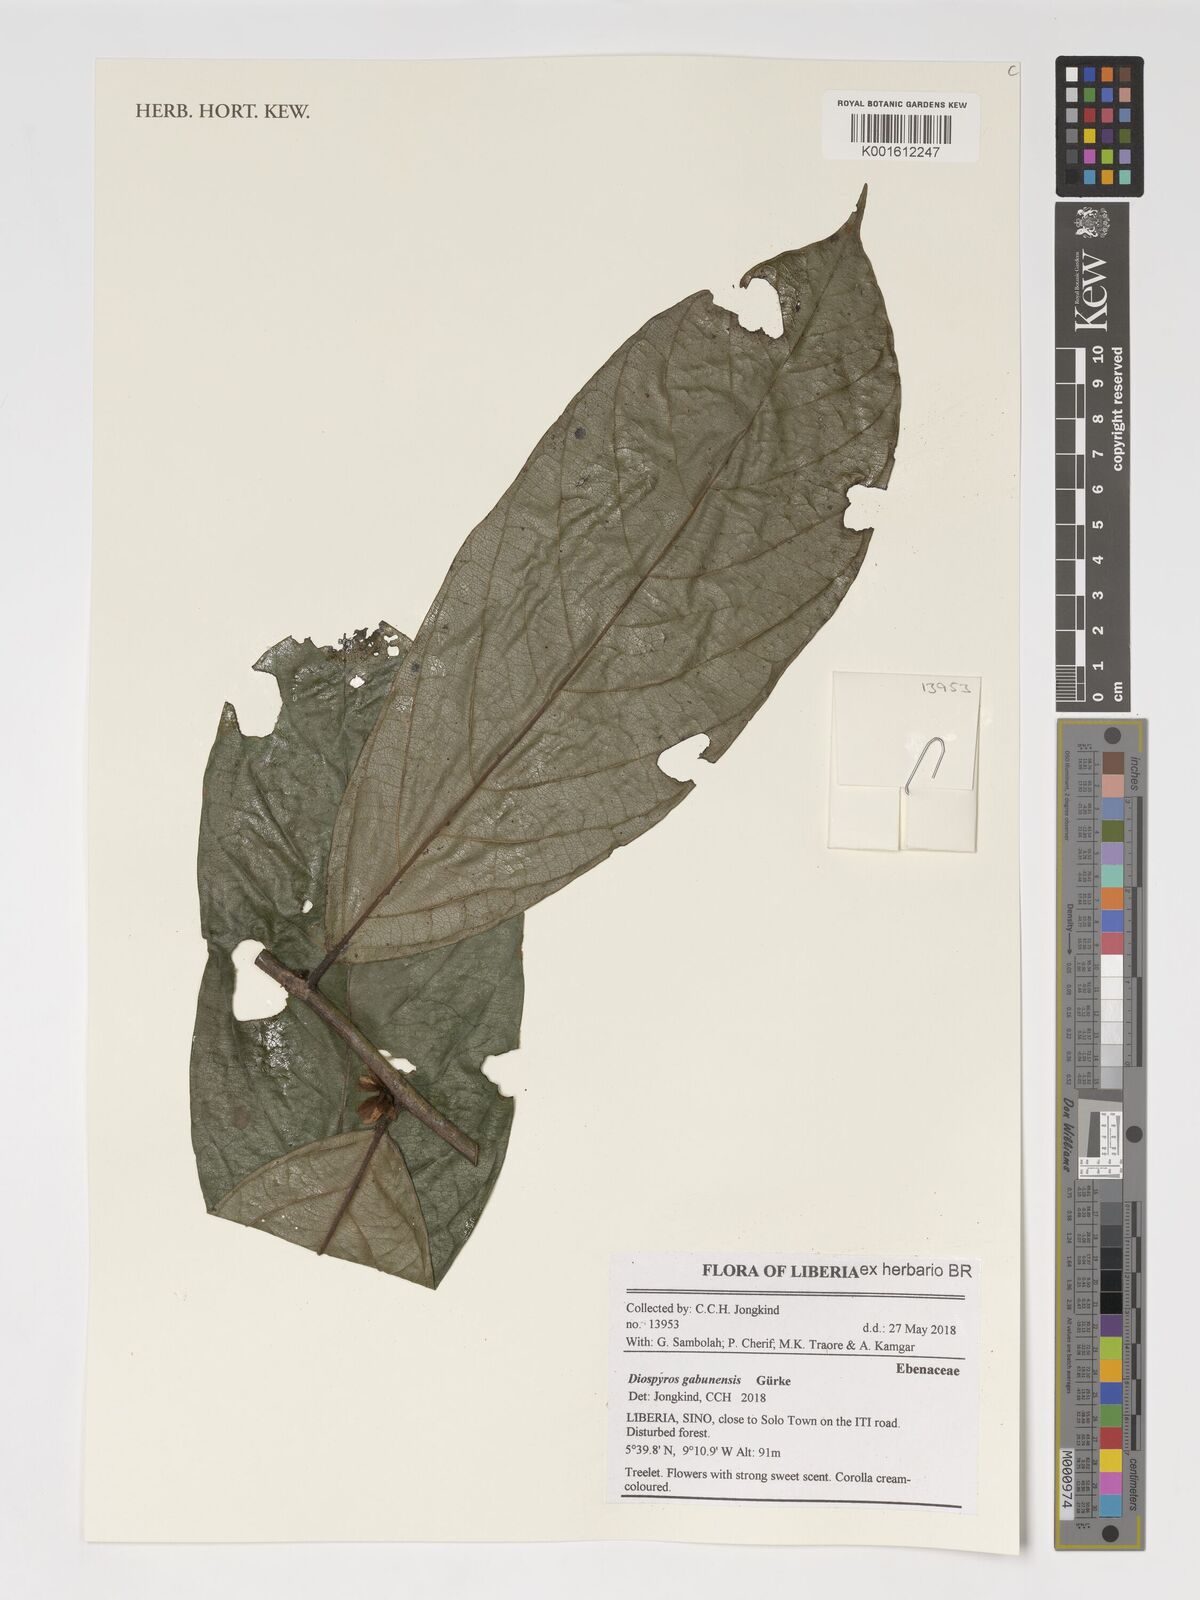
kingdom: Plantae
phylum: Tracheophyta
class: Magnoliopsida
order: Ericales
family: Ebenaceae
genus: Diospyros
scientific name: Diospyros gabunensis
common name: Flint bark tree
